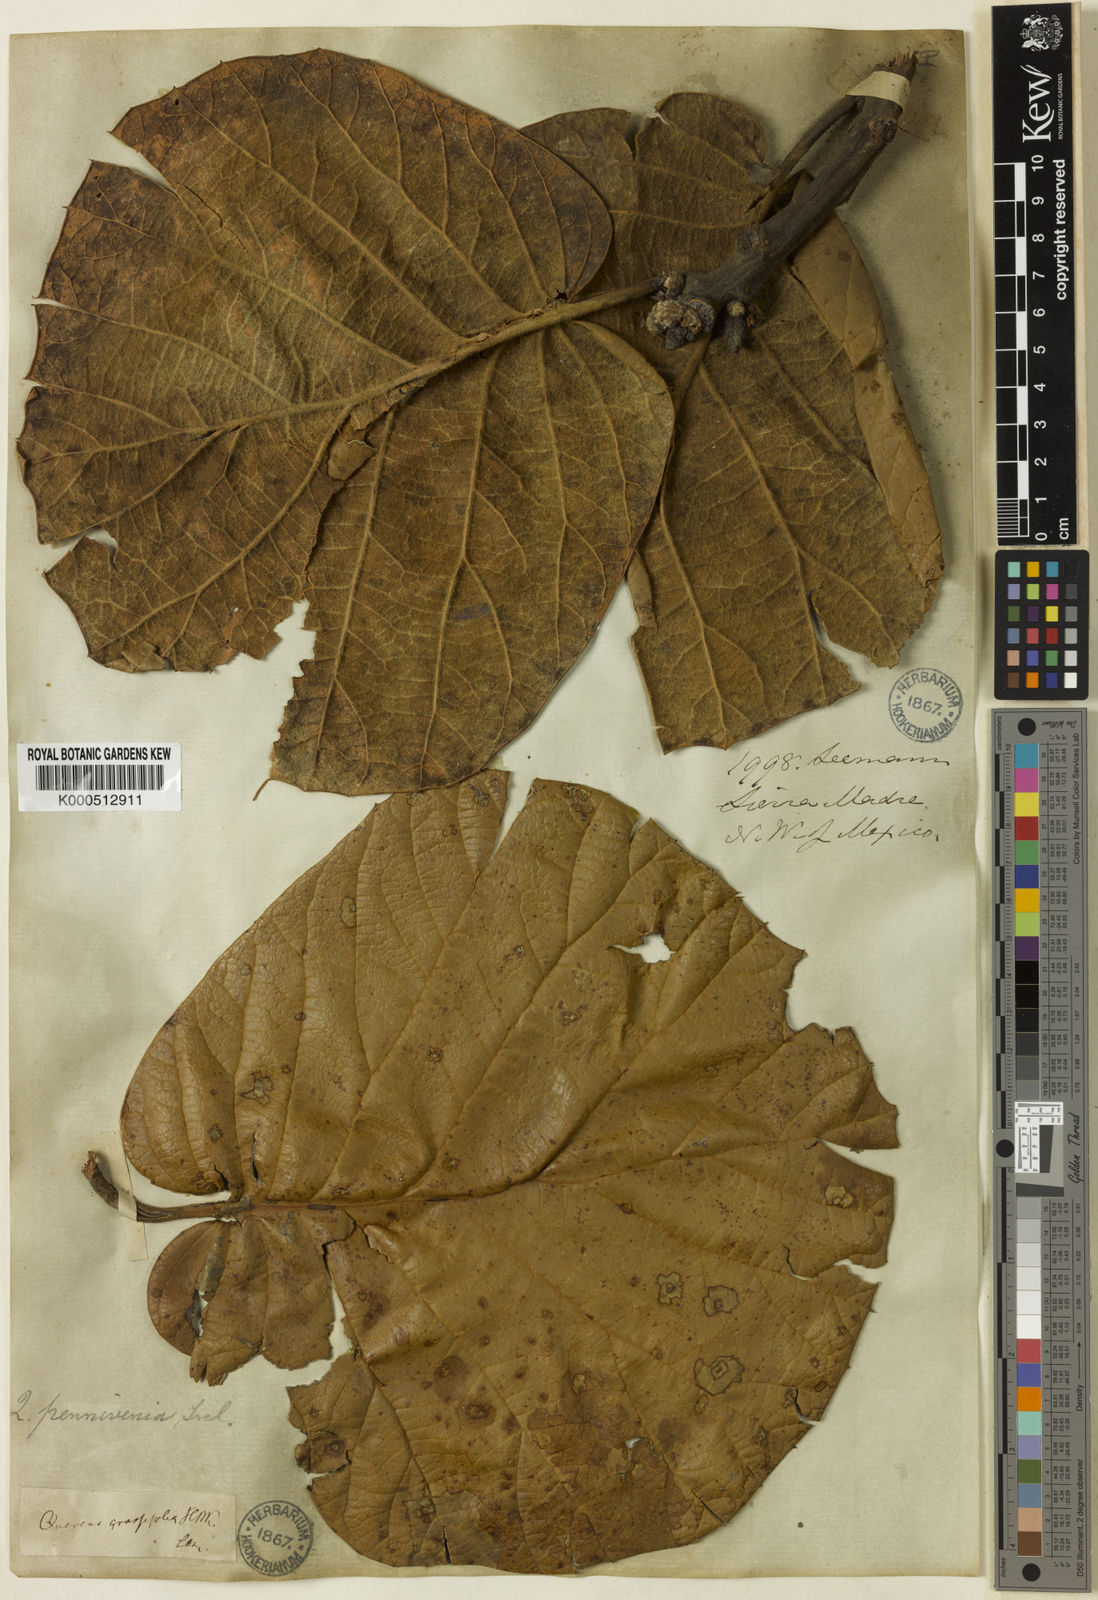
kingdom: Plantae
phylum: Tracheophyta
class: Magnoliopsida
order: Fagales
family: Fagaceae
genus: Quercus
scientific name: Quercus pennivenia
